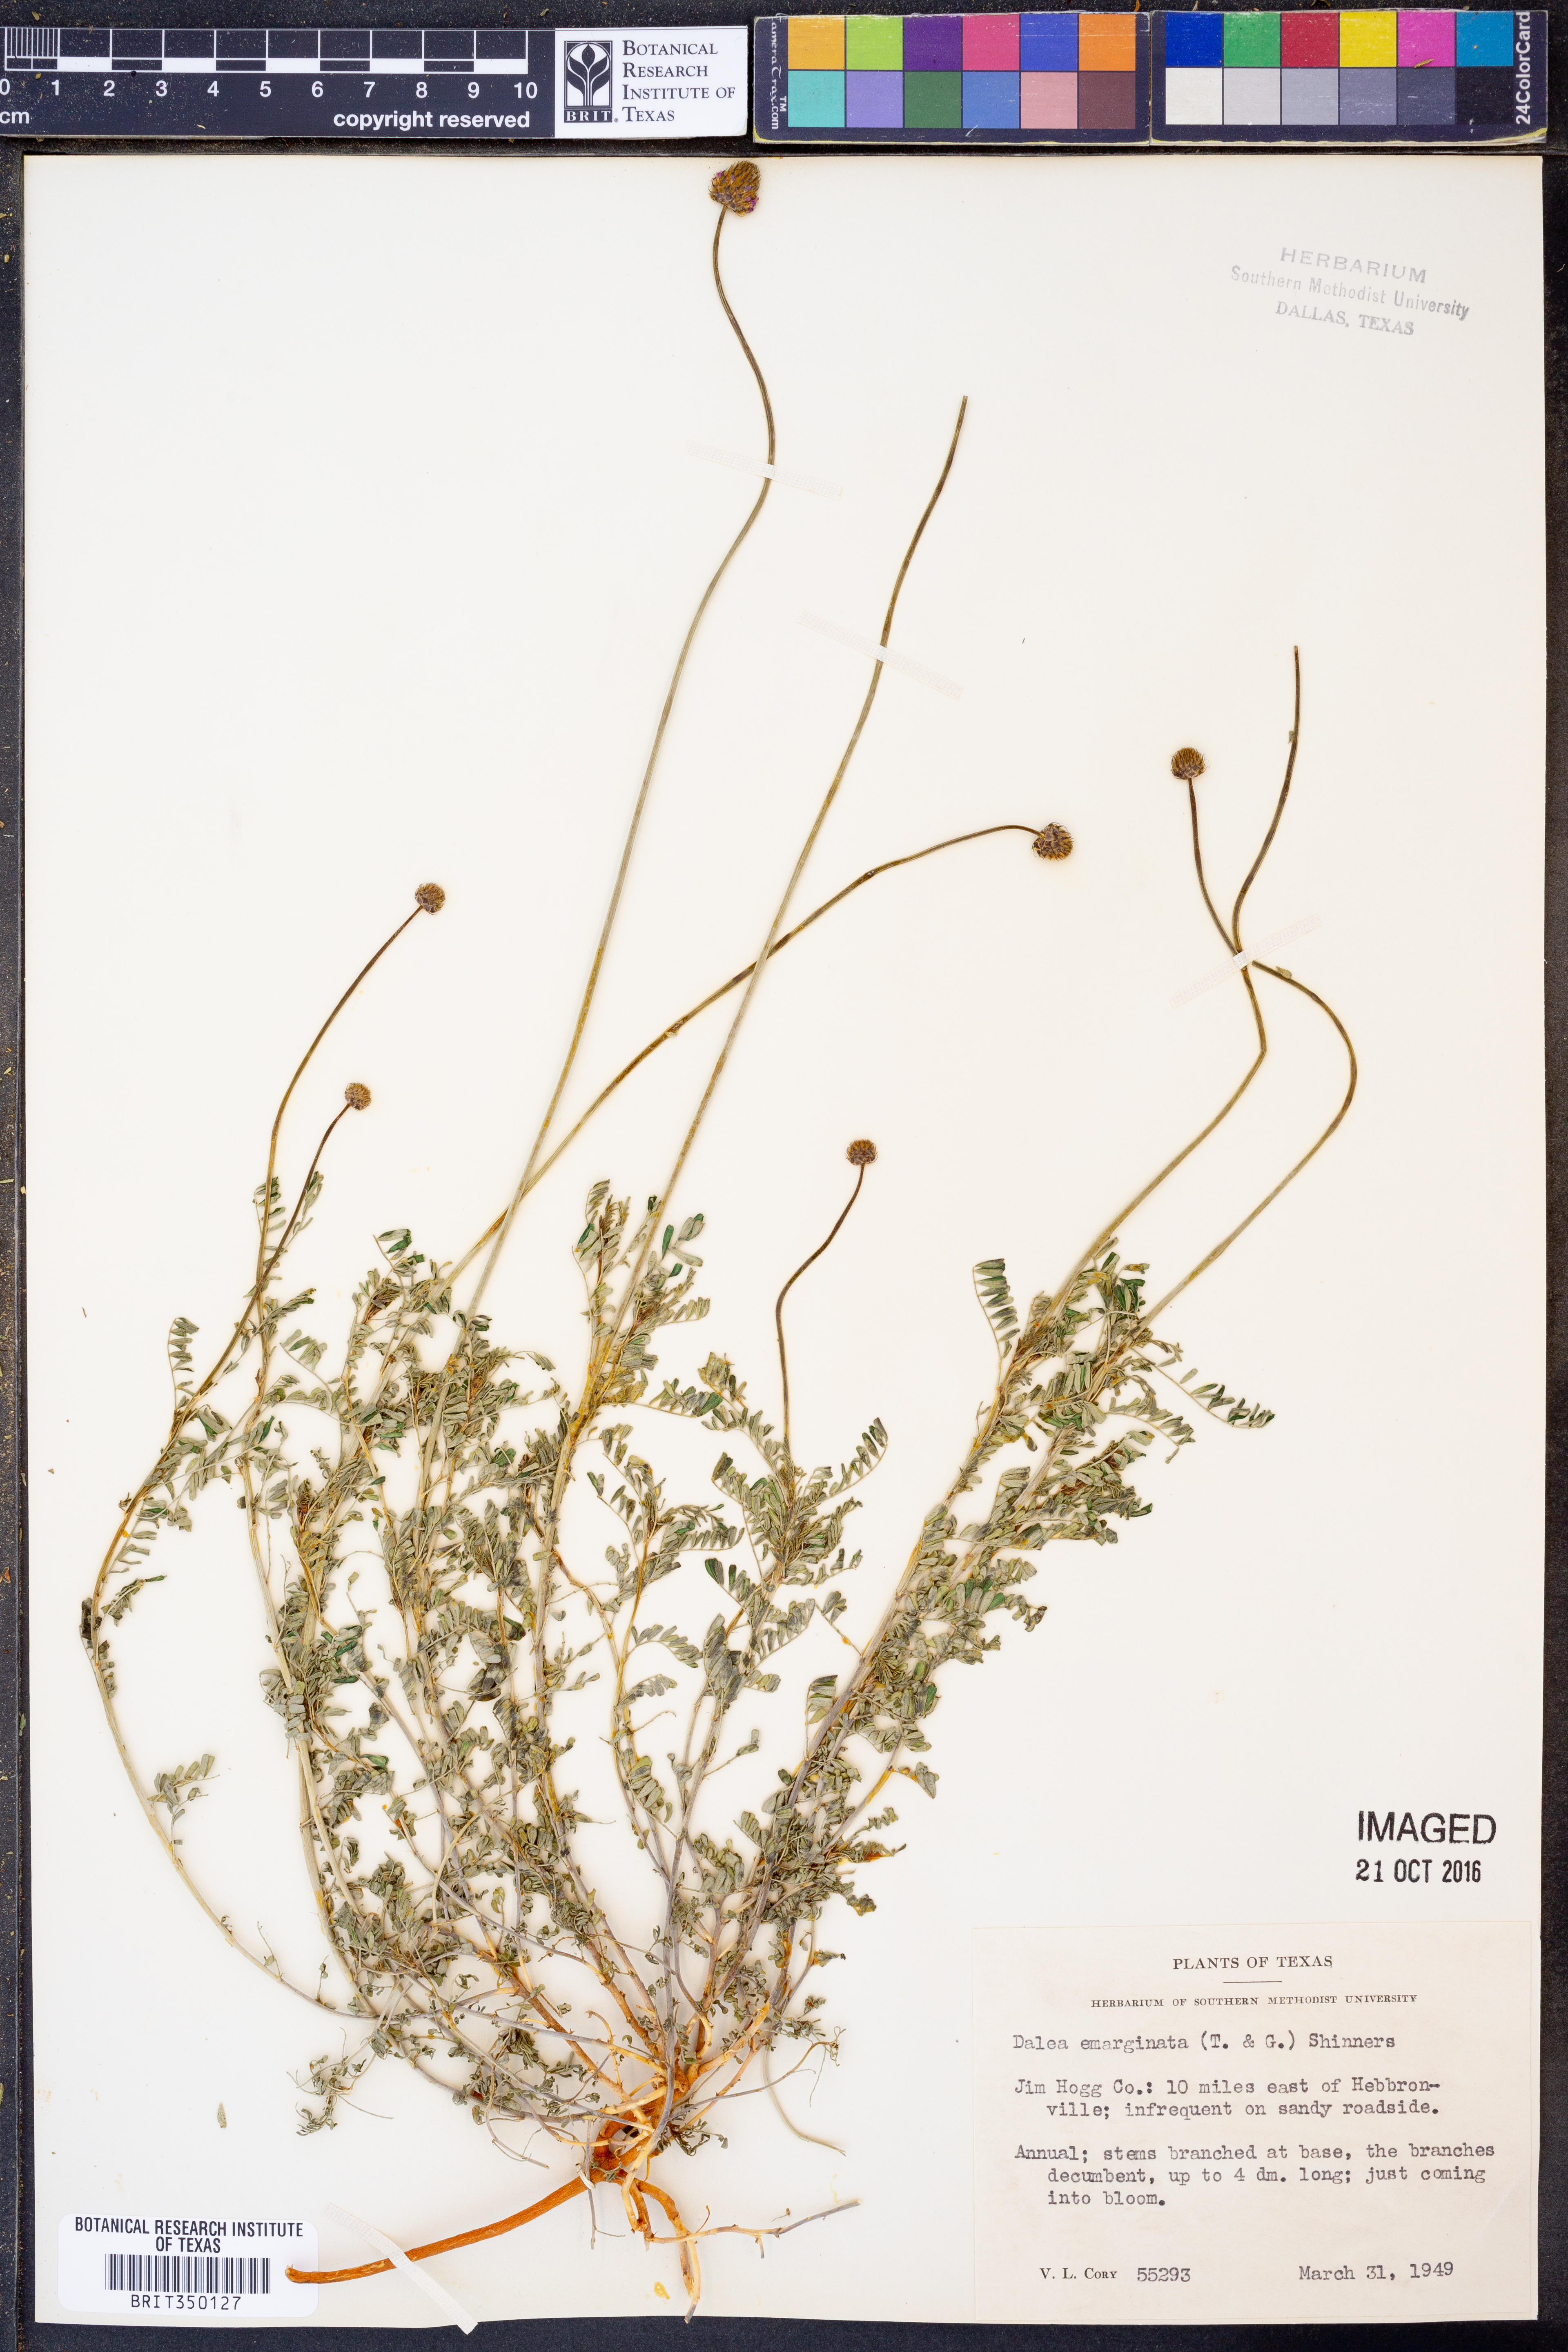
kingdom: Plantae
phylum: Tracheophyta
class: Magnoliopsida
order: Fabales
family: Fabaceae
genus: Dalea
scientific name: Dalea emarginata
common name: Wedgeleaf prairie clover
